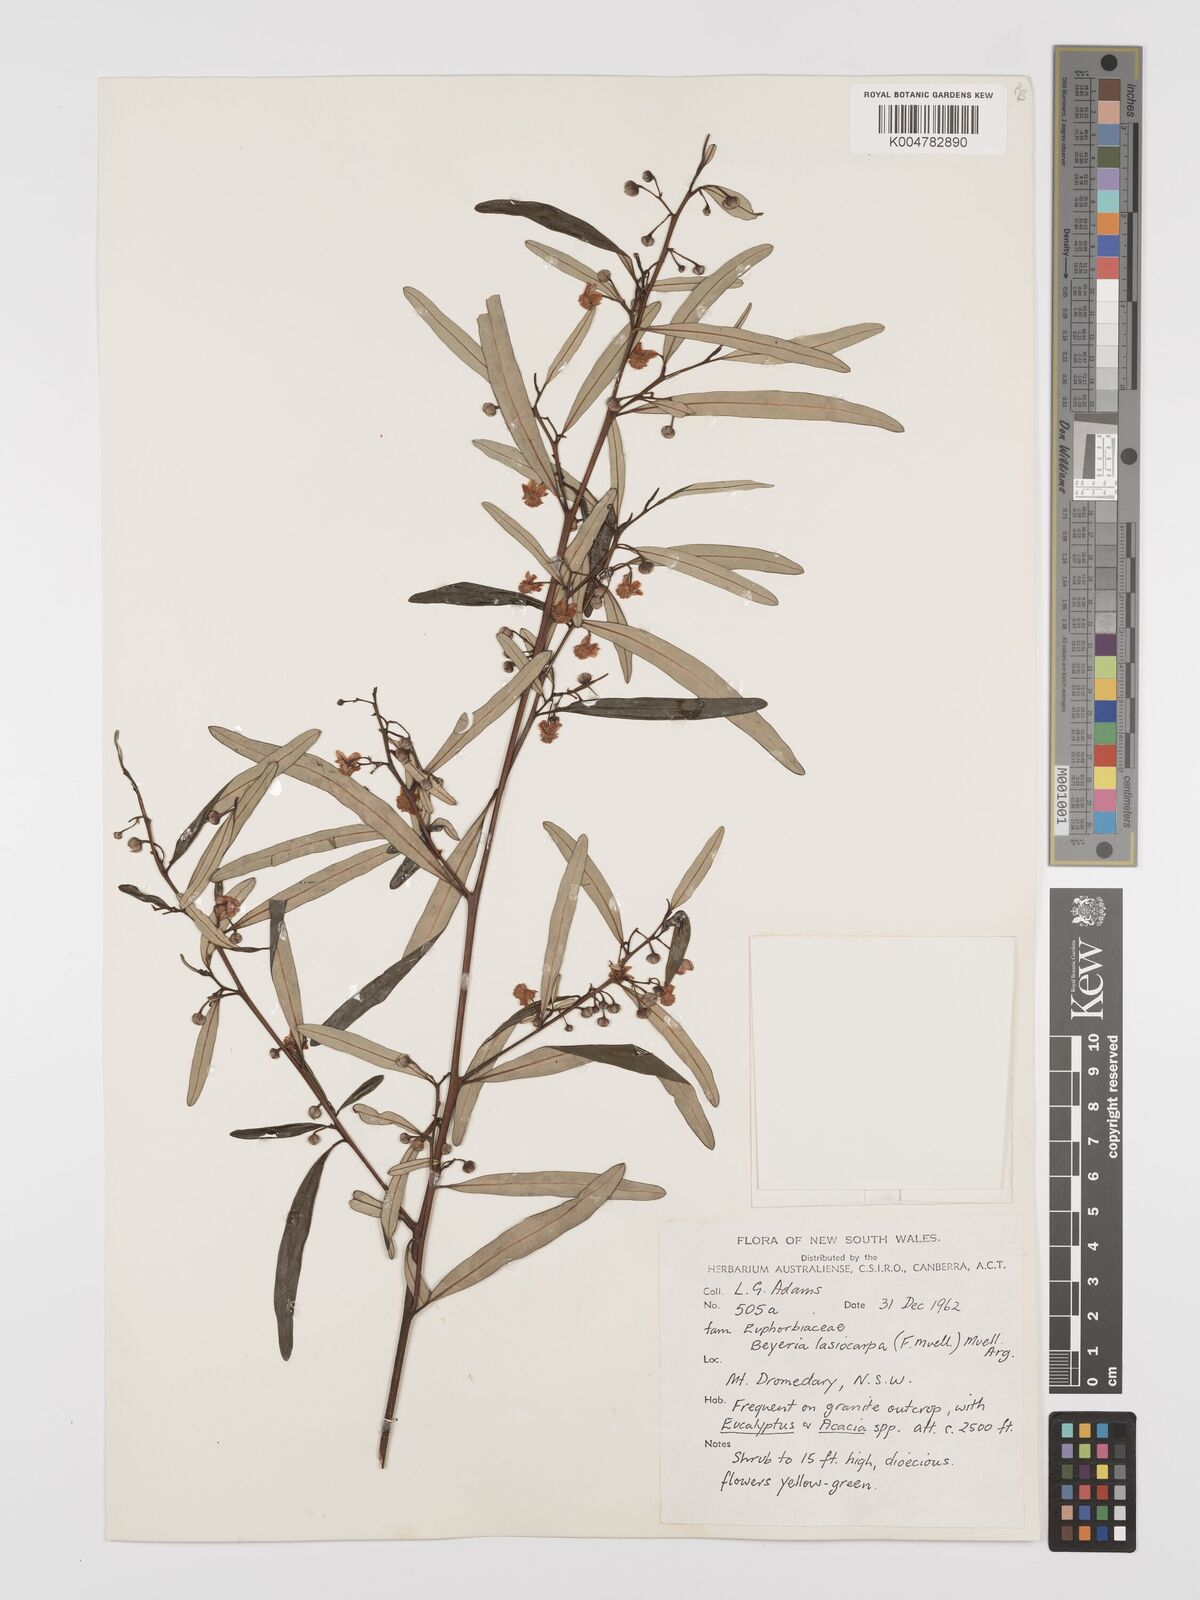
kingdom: Plantae
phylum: Tracheophyta
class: Magnoliopsida
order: Malpighiales
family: Euphorbiaceae
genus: Beyeria
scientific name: Beyeria lasiocarpa
